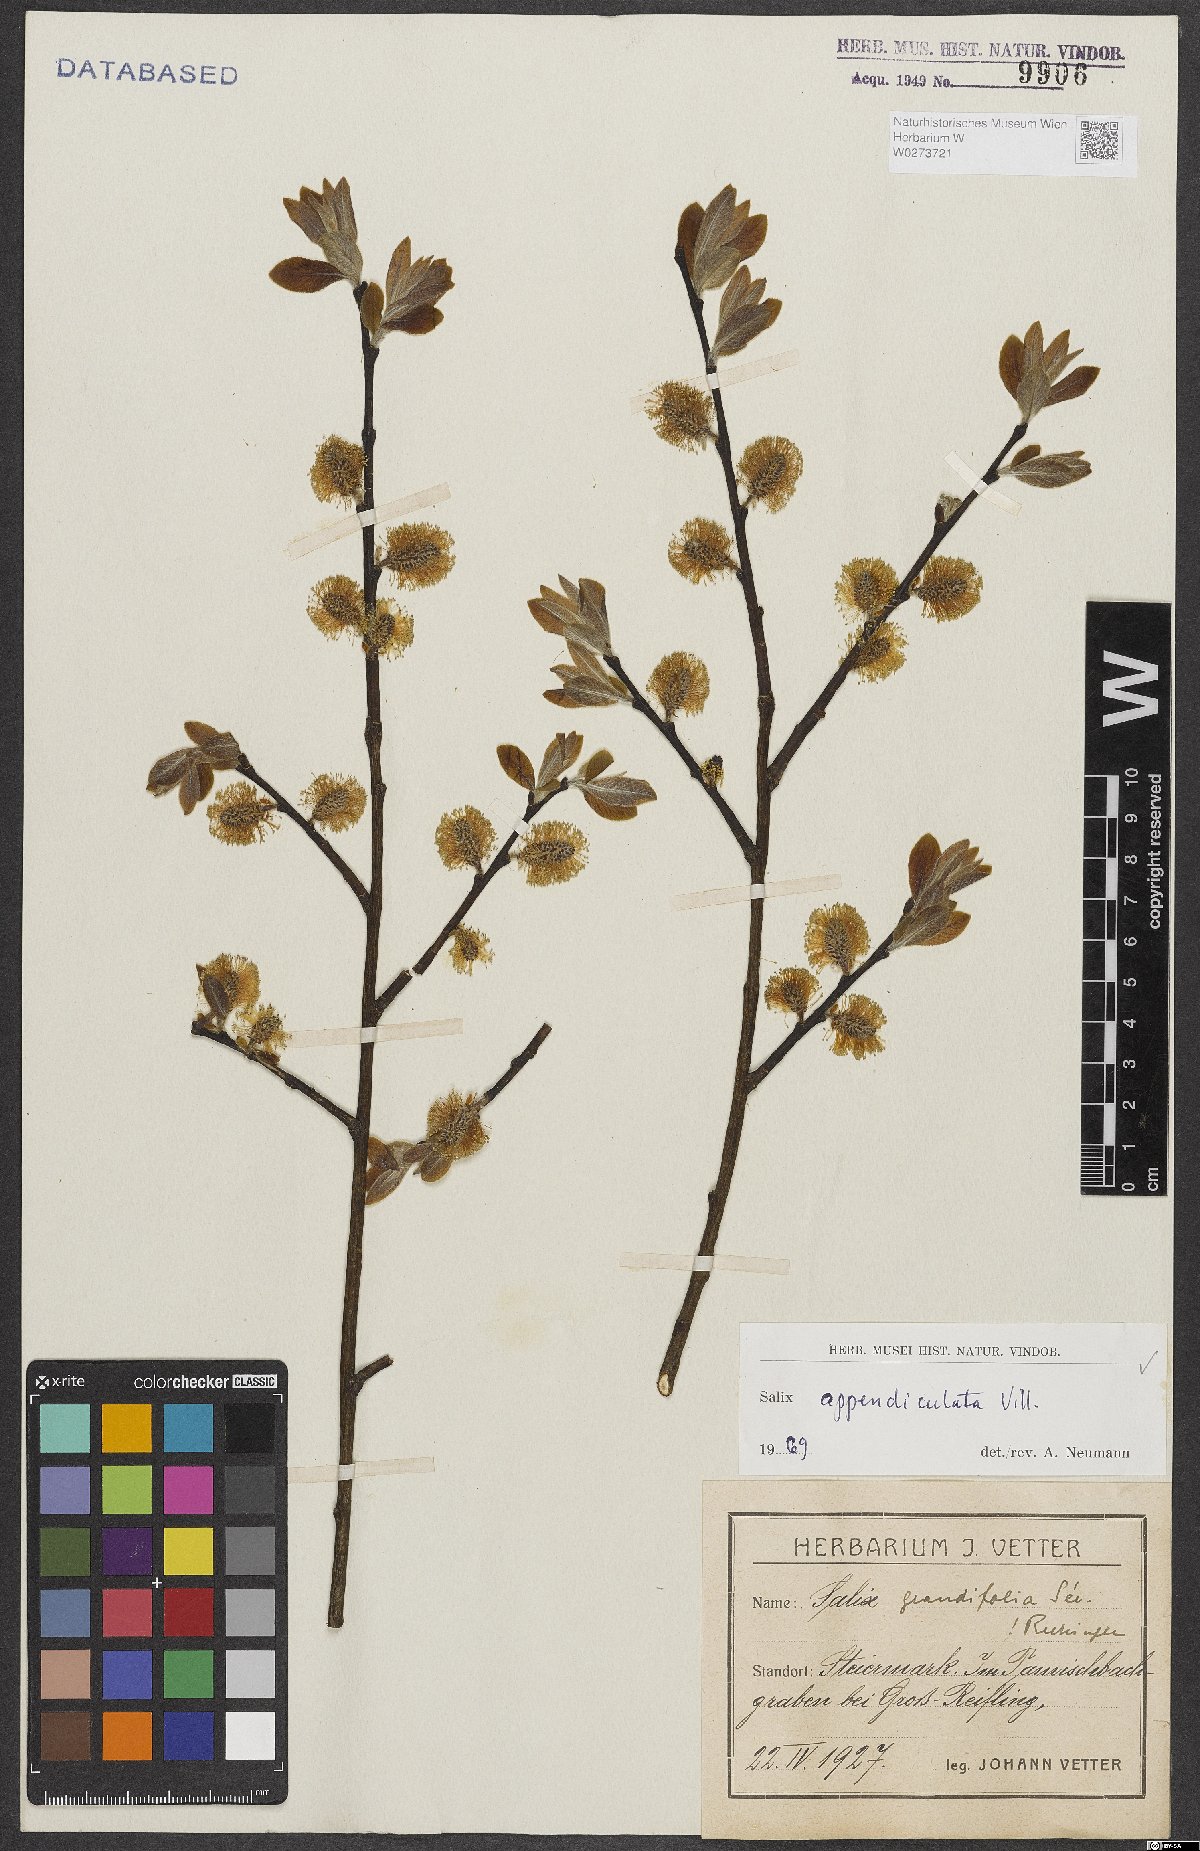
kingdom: Plantae
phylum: Tracheophyta
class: Magnoliopsida
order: Malpighiales
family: Salicaceae
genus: Salix
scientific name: Salix appendiculata
